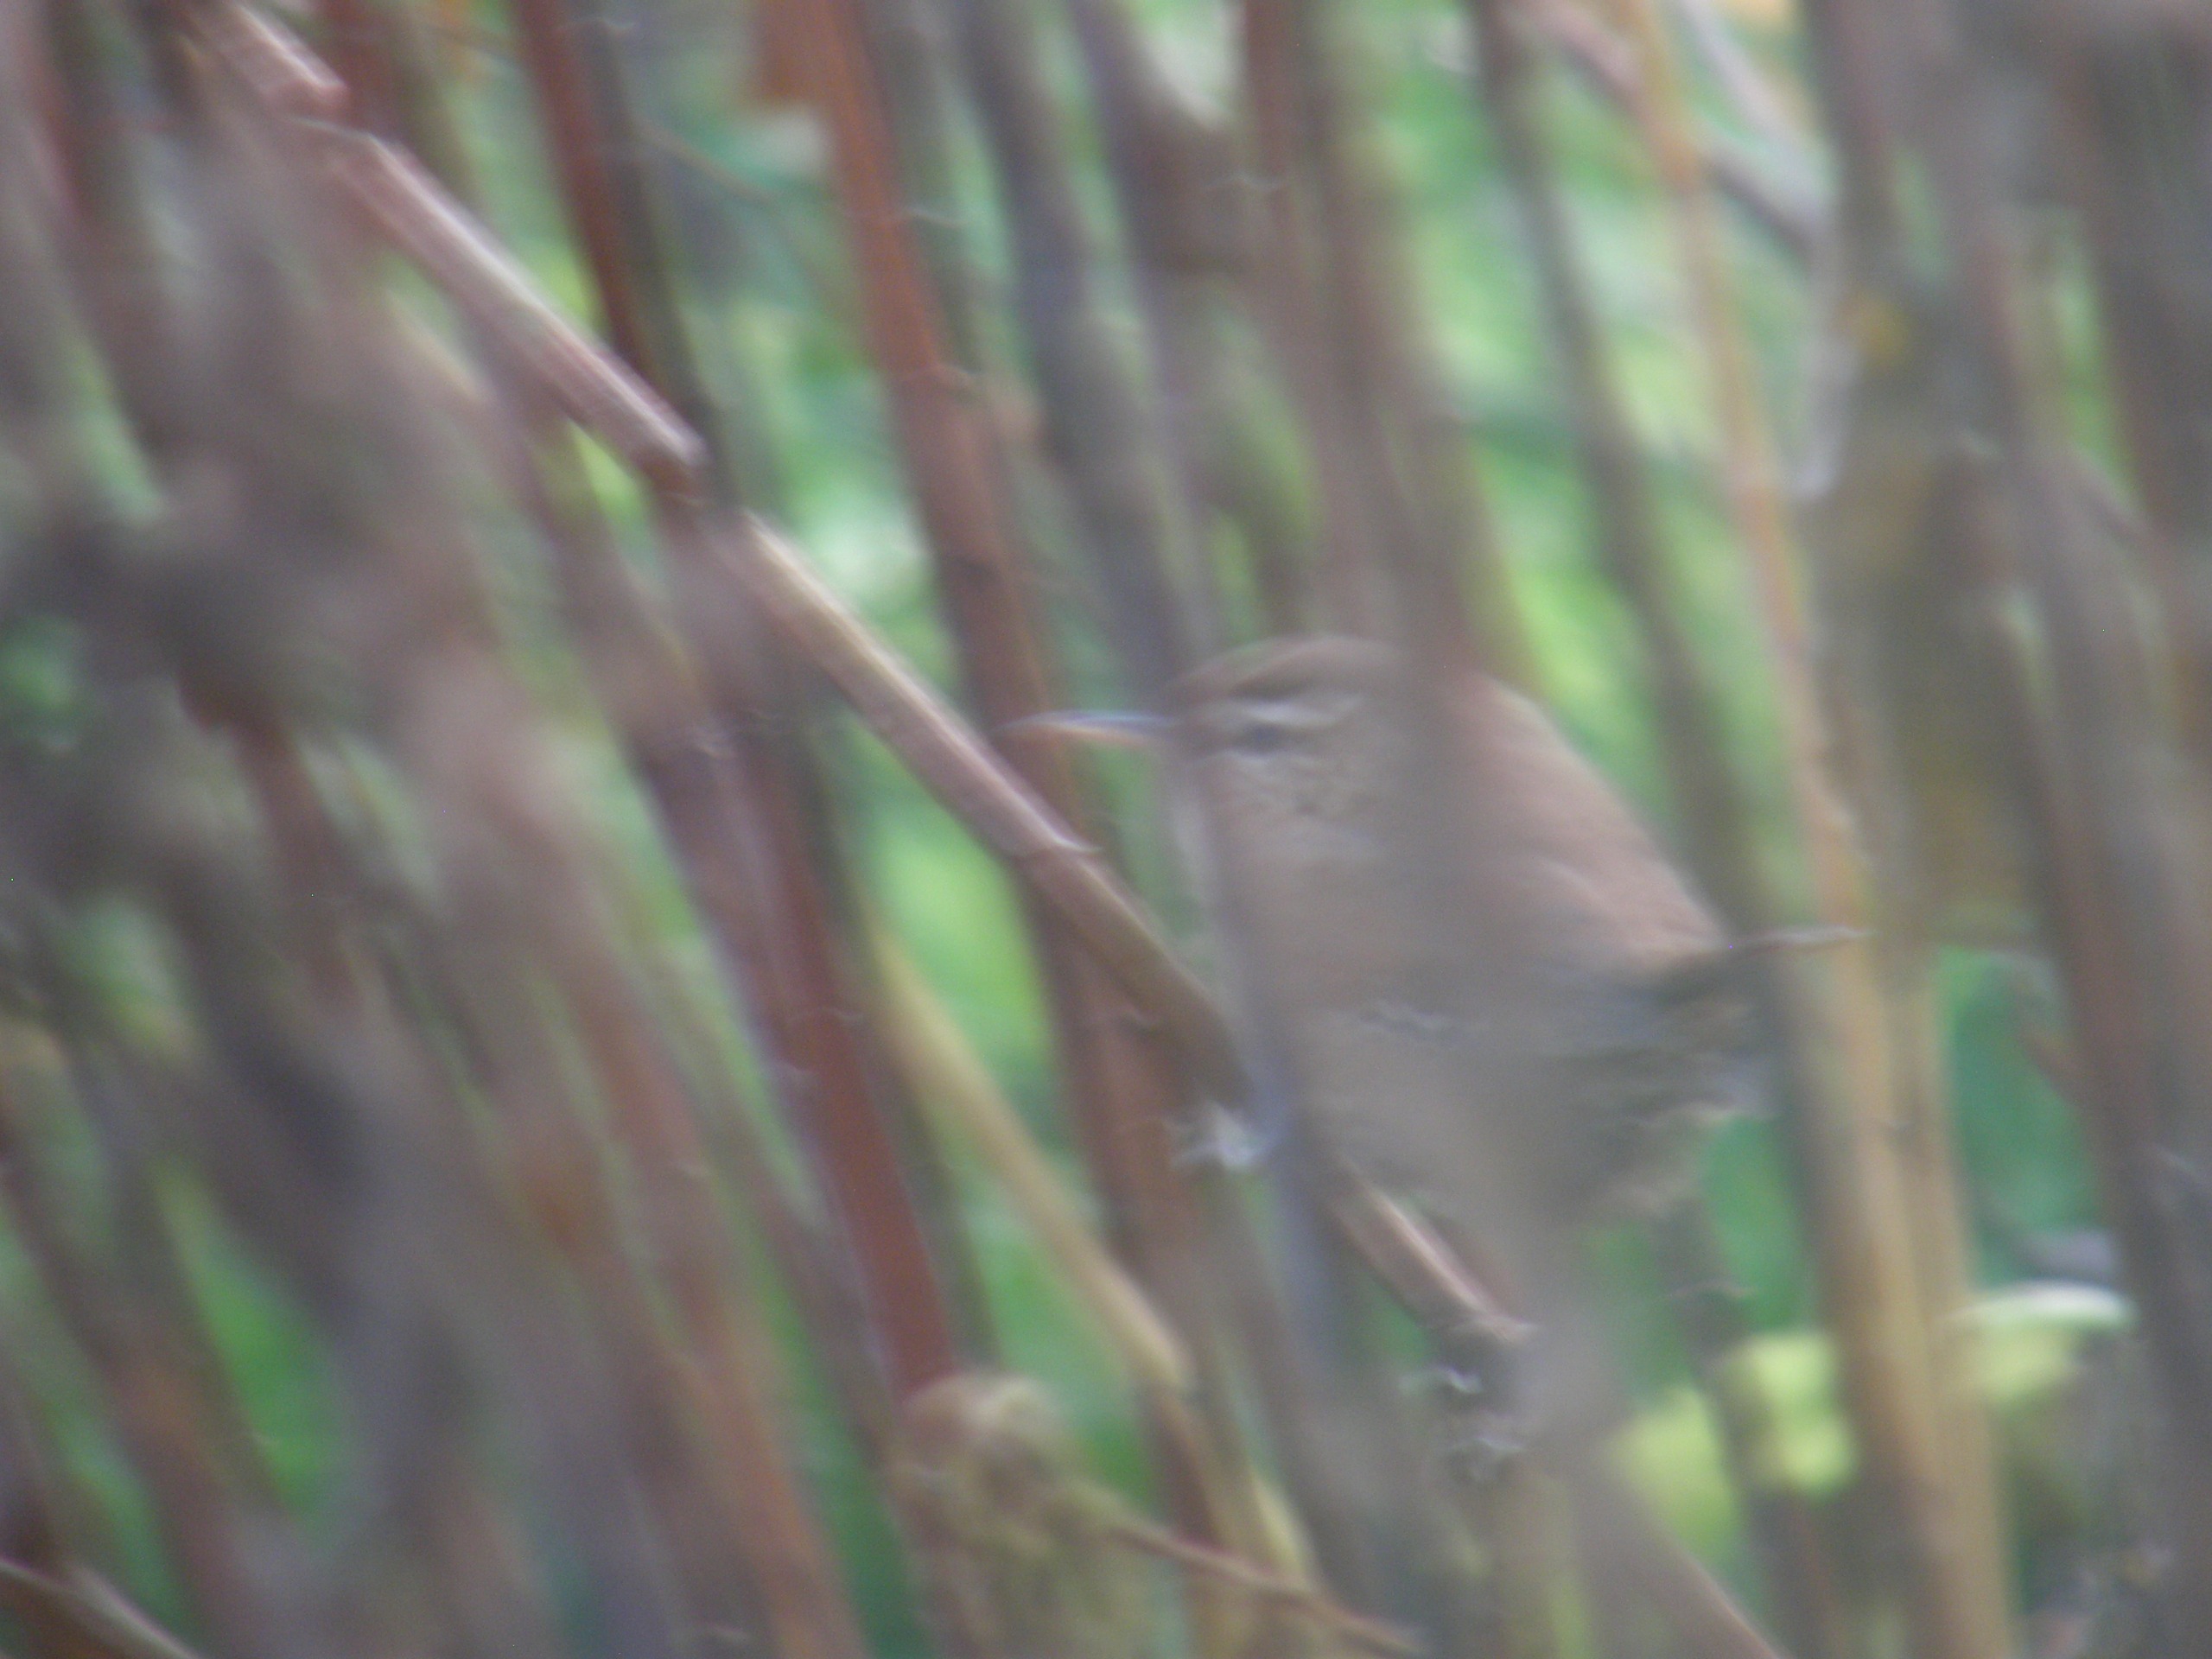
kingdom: Animalia
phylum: Chordata
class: Aves
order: Passeriformes
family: Troglodytidae
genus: Troglodytes
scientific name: Troglodytes troglodytes
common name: Gærdesmutte
